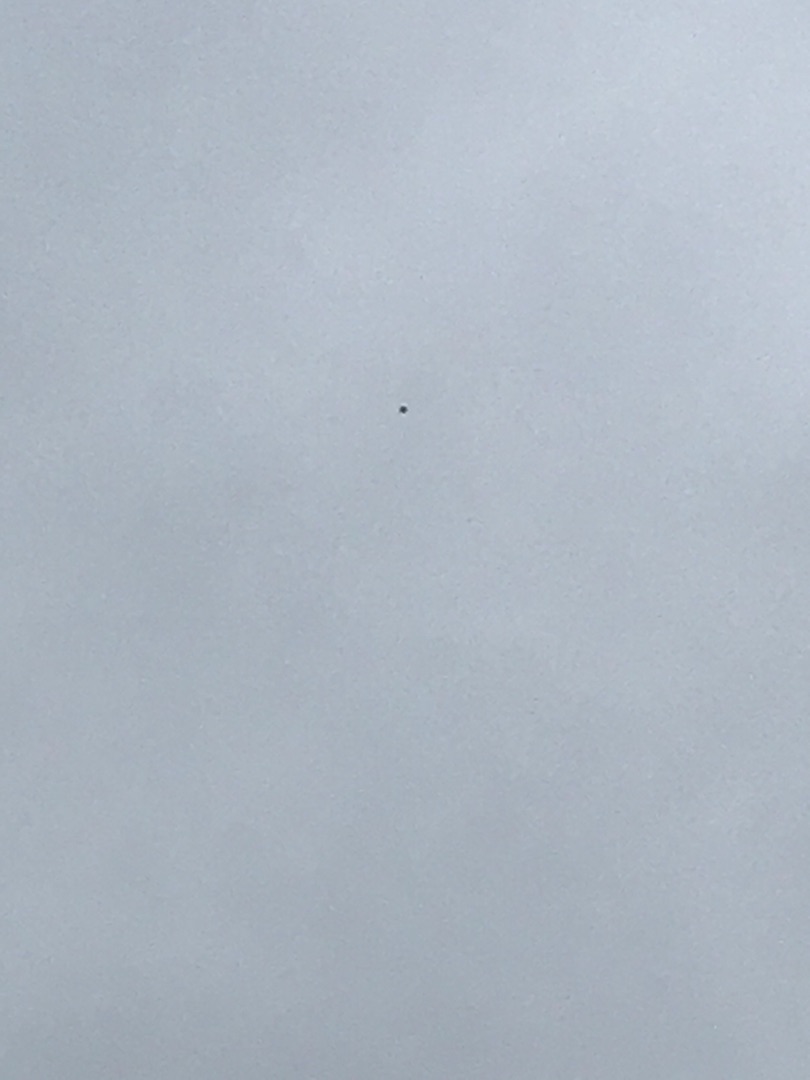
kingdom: Animalia
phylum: Chordata
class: Aves
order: Passeriformes
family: Alaudidae
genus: Alauda
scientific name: Alauda arvensis
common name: Sanglærke
